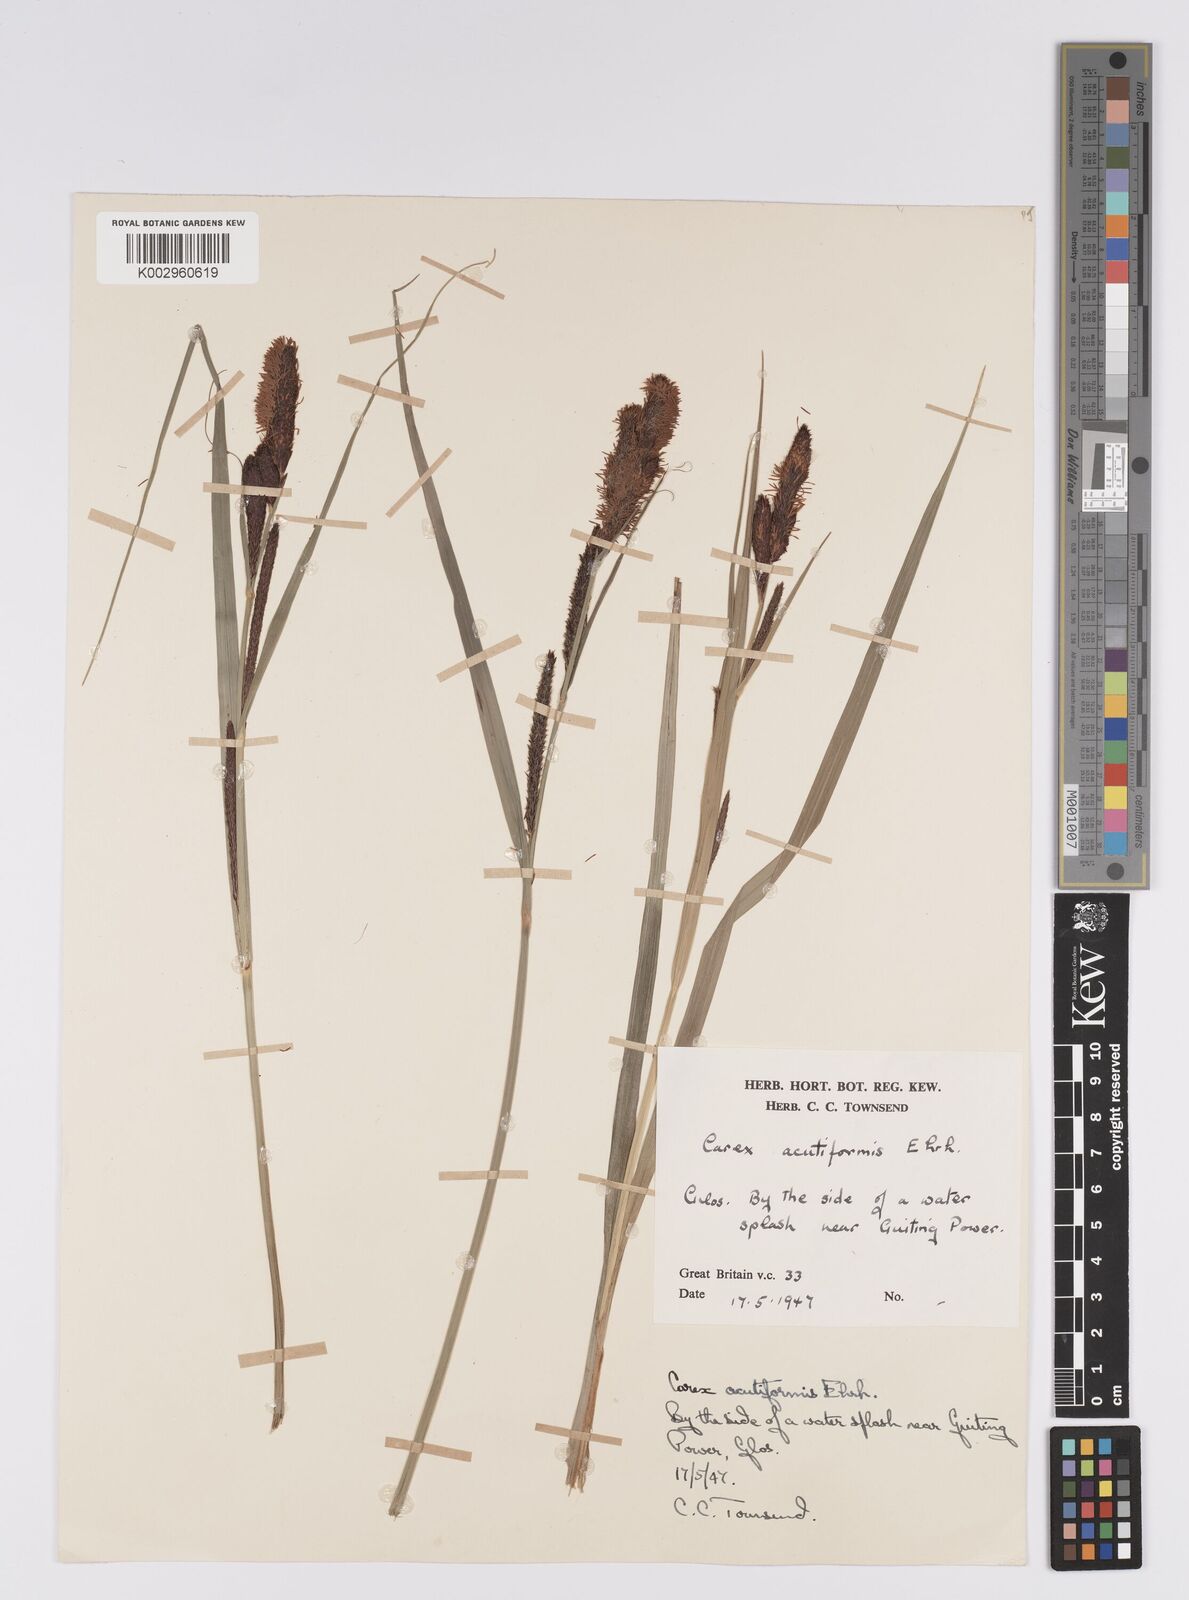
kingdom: Plantae
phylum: Tracheophyta
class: Liliopsida
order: Poales
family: Cyperaceae
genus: Carex
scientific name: Carex acutiformis
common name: Lesser pond-sedge
